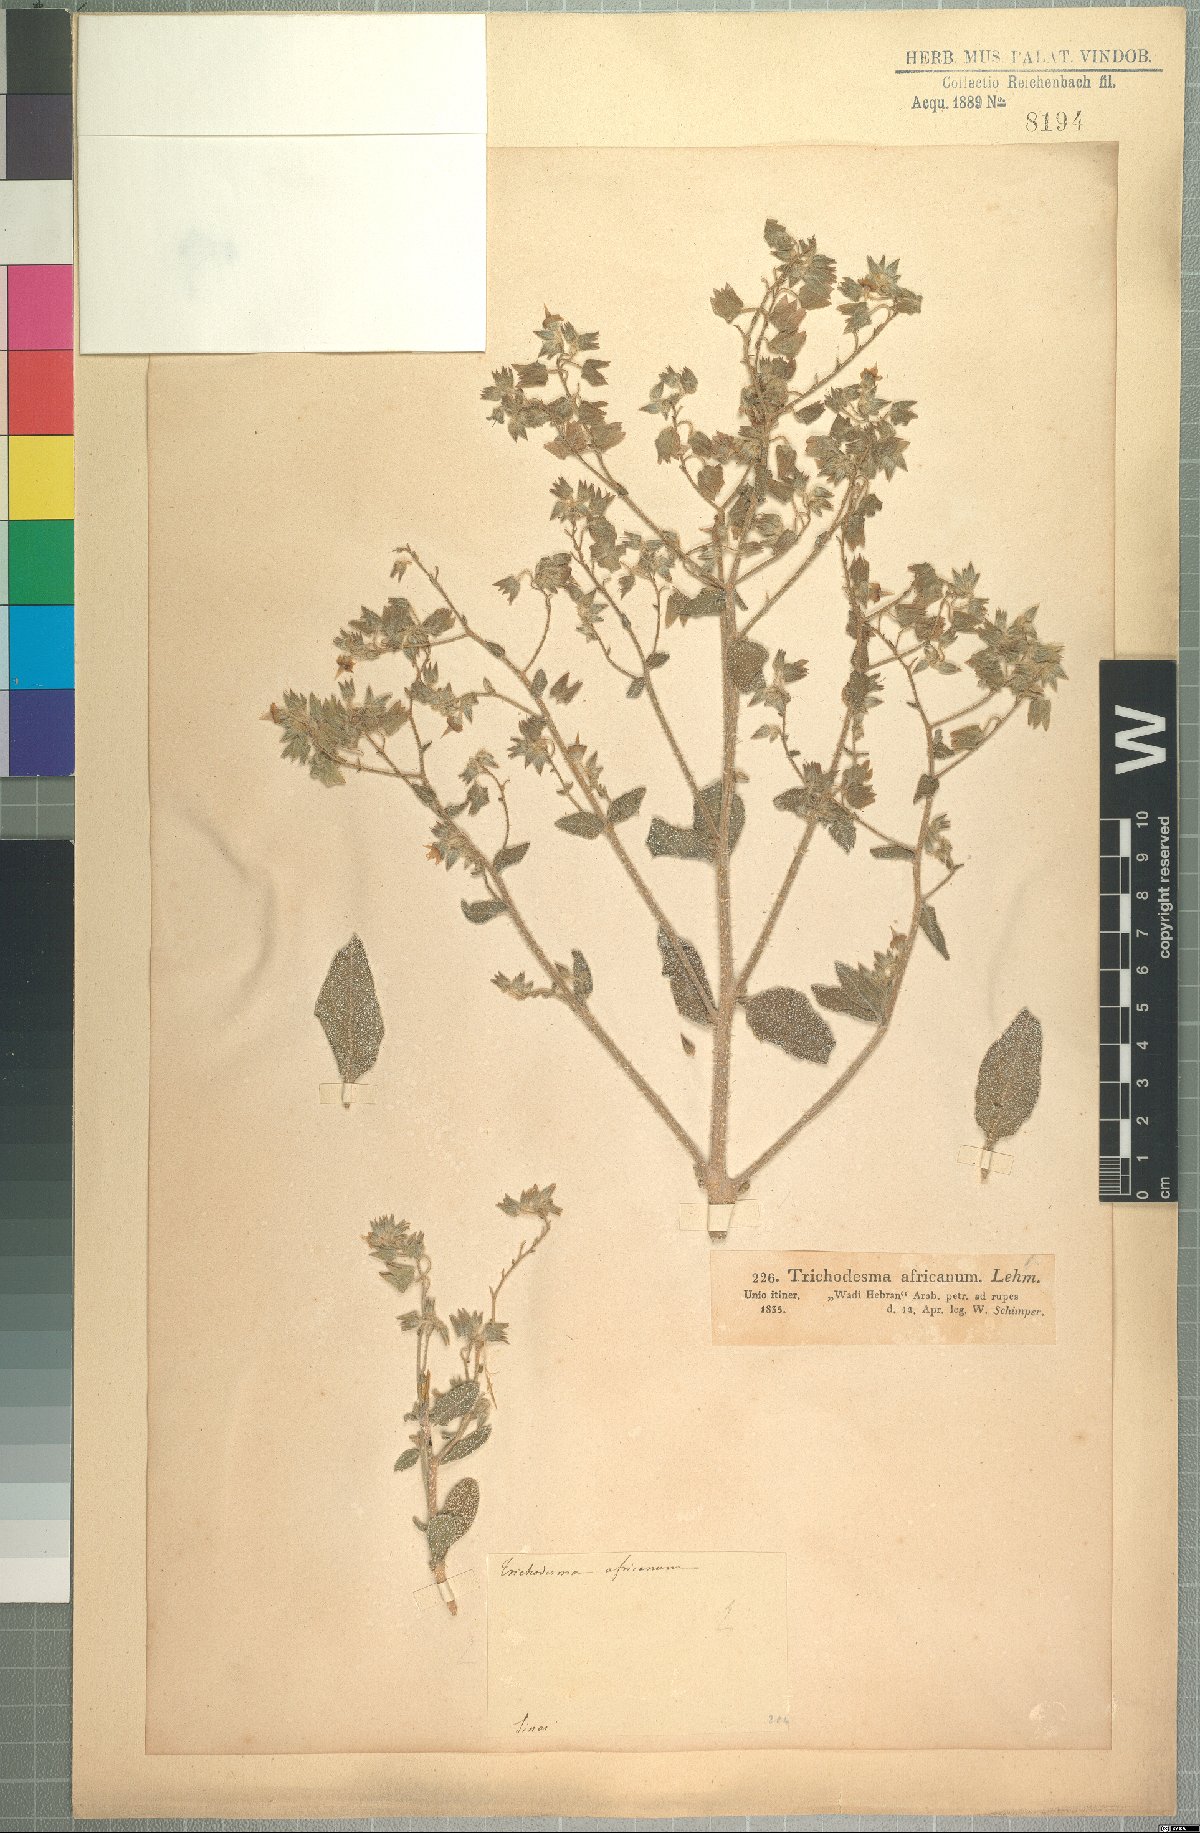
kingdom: Plantae
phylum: Tracheophyta
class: Magnoliopsida
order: Boraginales
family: Boraginaceae
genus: Trichodesma
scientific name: Trichodesma africanum
